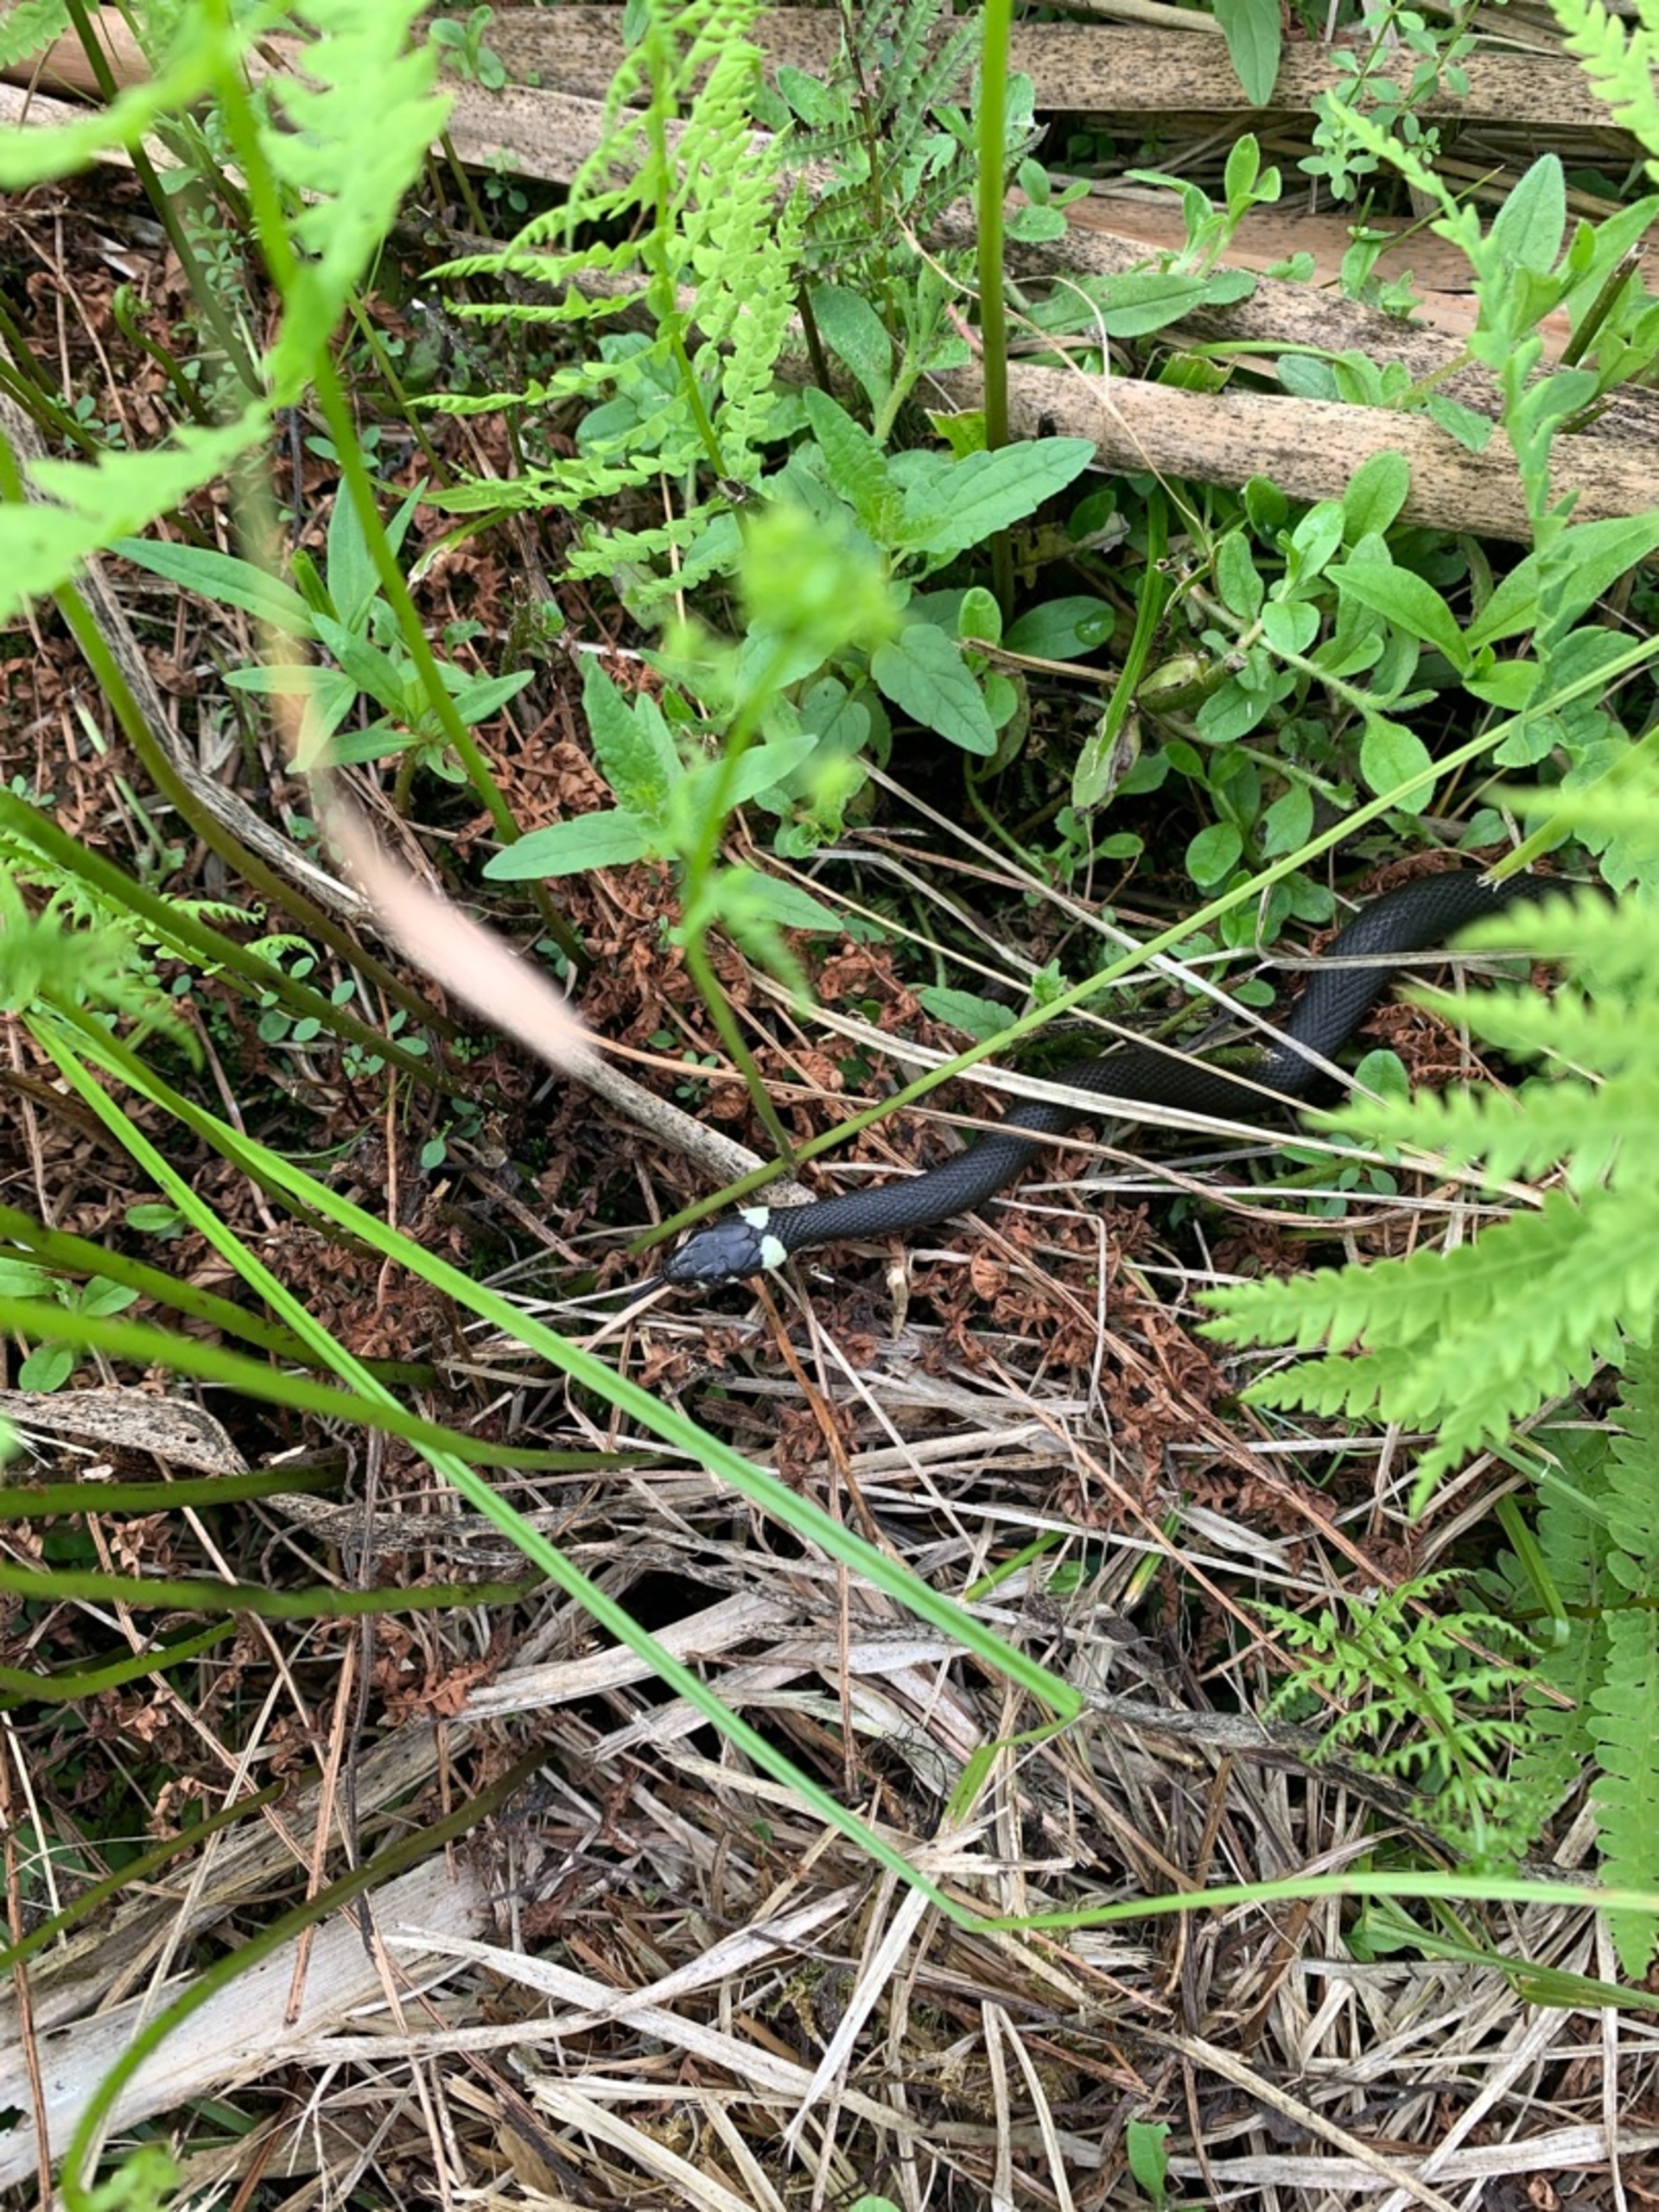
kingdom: Animalia
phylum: Chordata
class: Squamata
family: Colubridae
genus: Natrix
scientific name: Natrix natrix
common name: Snog
